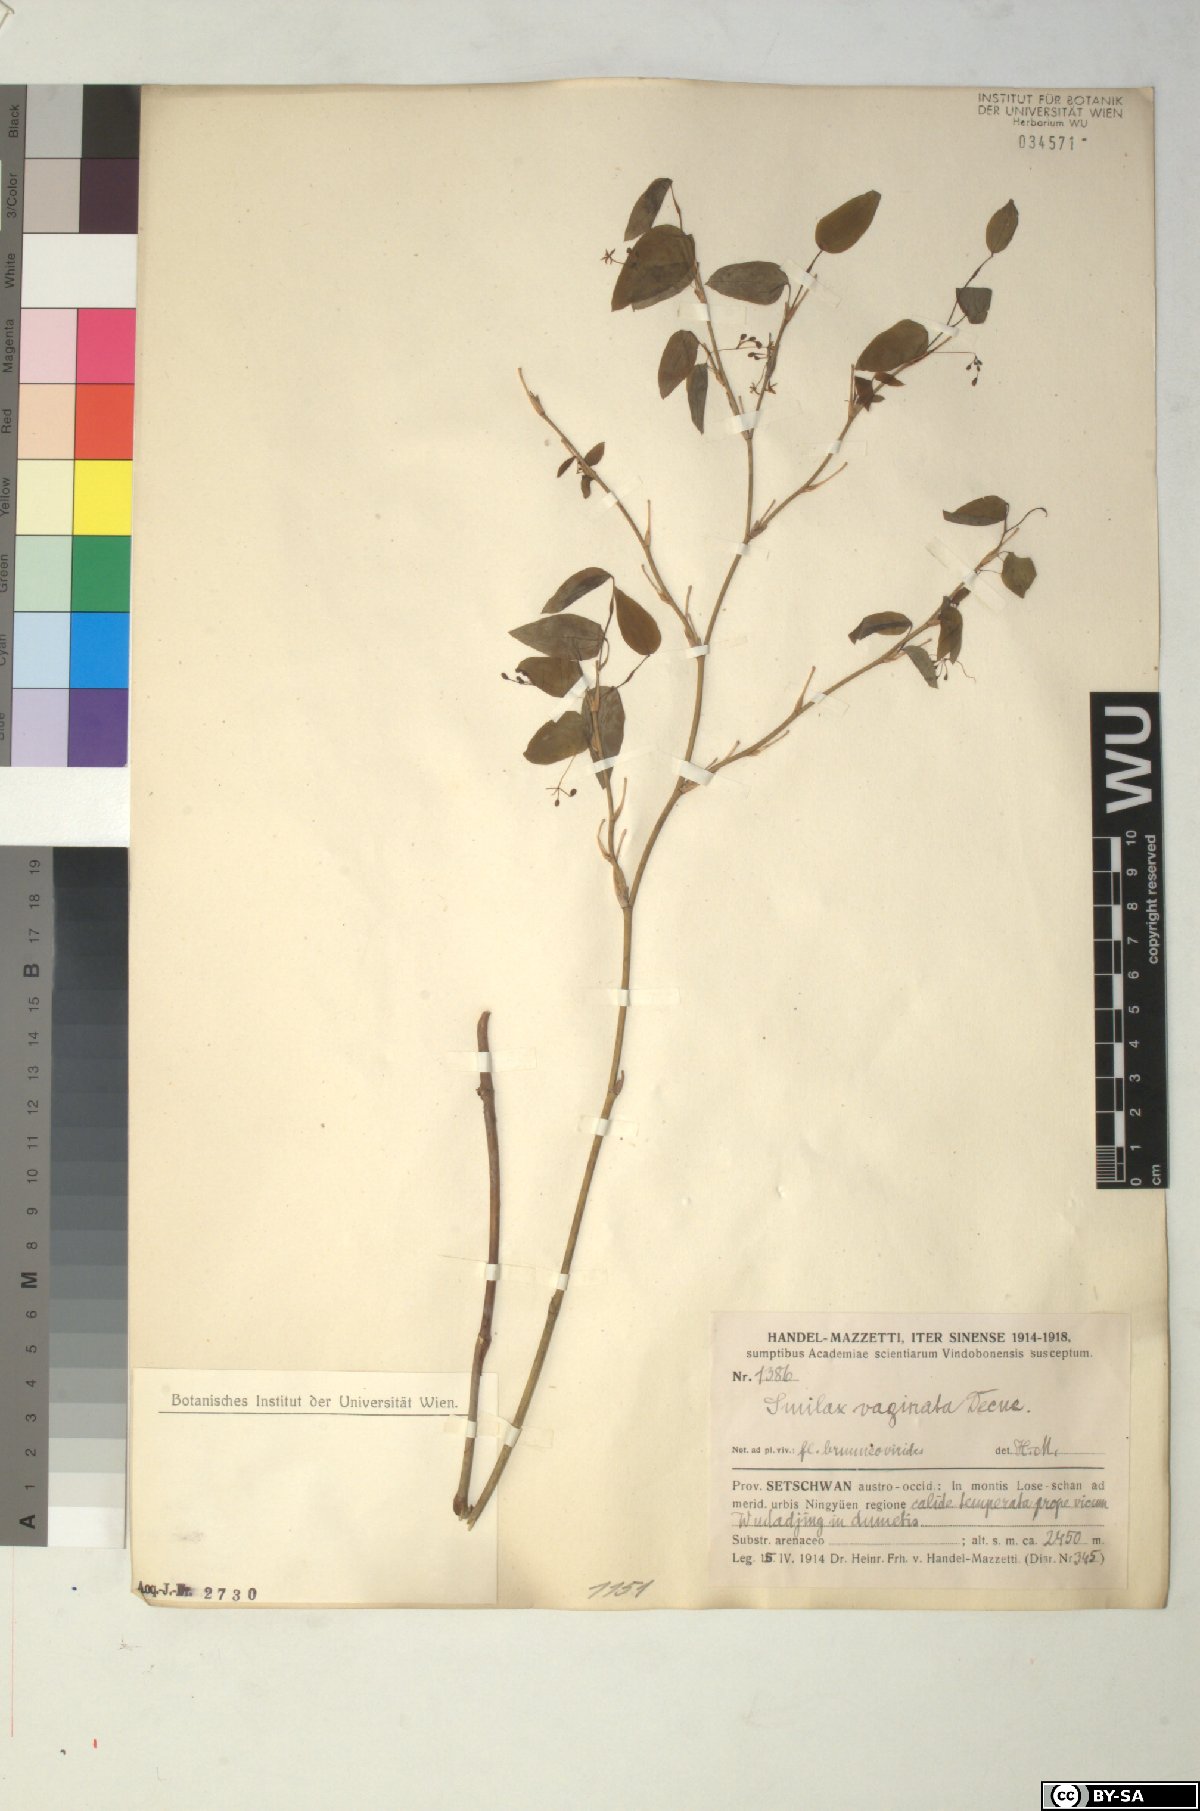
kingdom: Plantae
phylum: Tracheophyta
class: Liliopsida
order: Liliales
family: Smilacaceae
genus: Smilax
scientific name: Smilax stans
